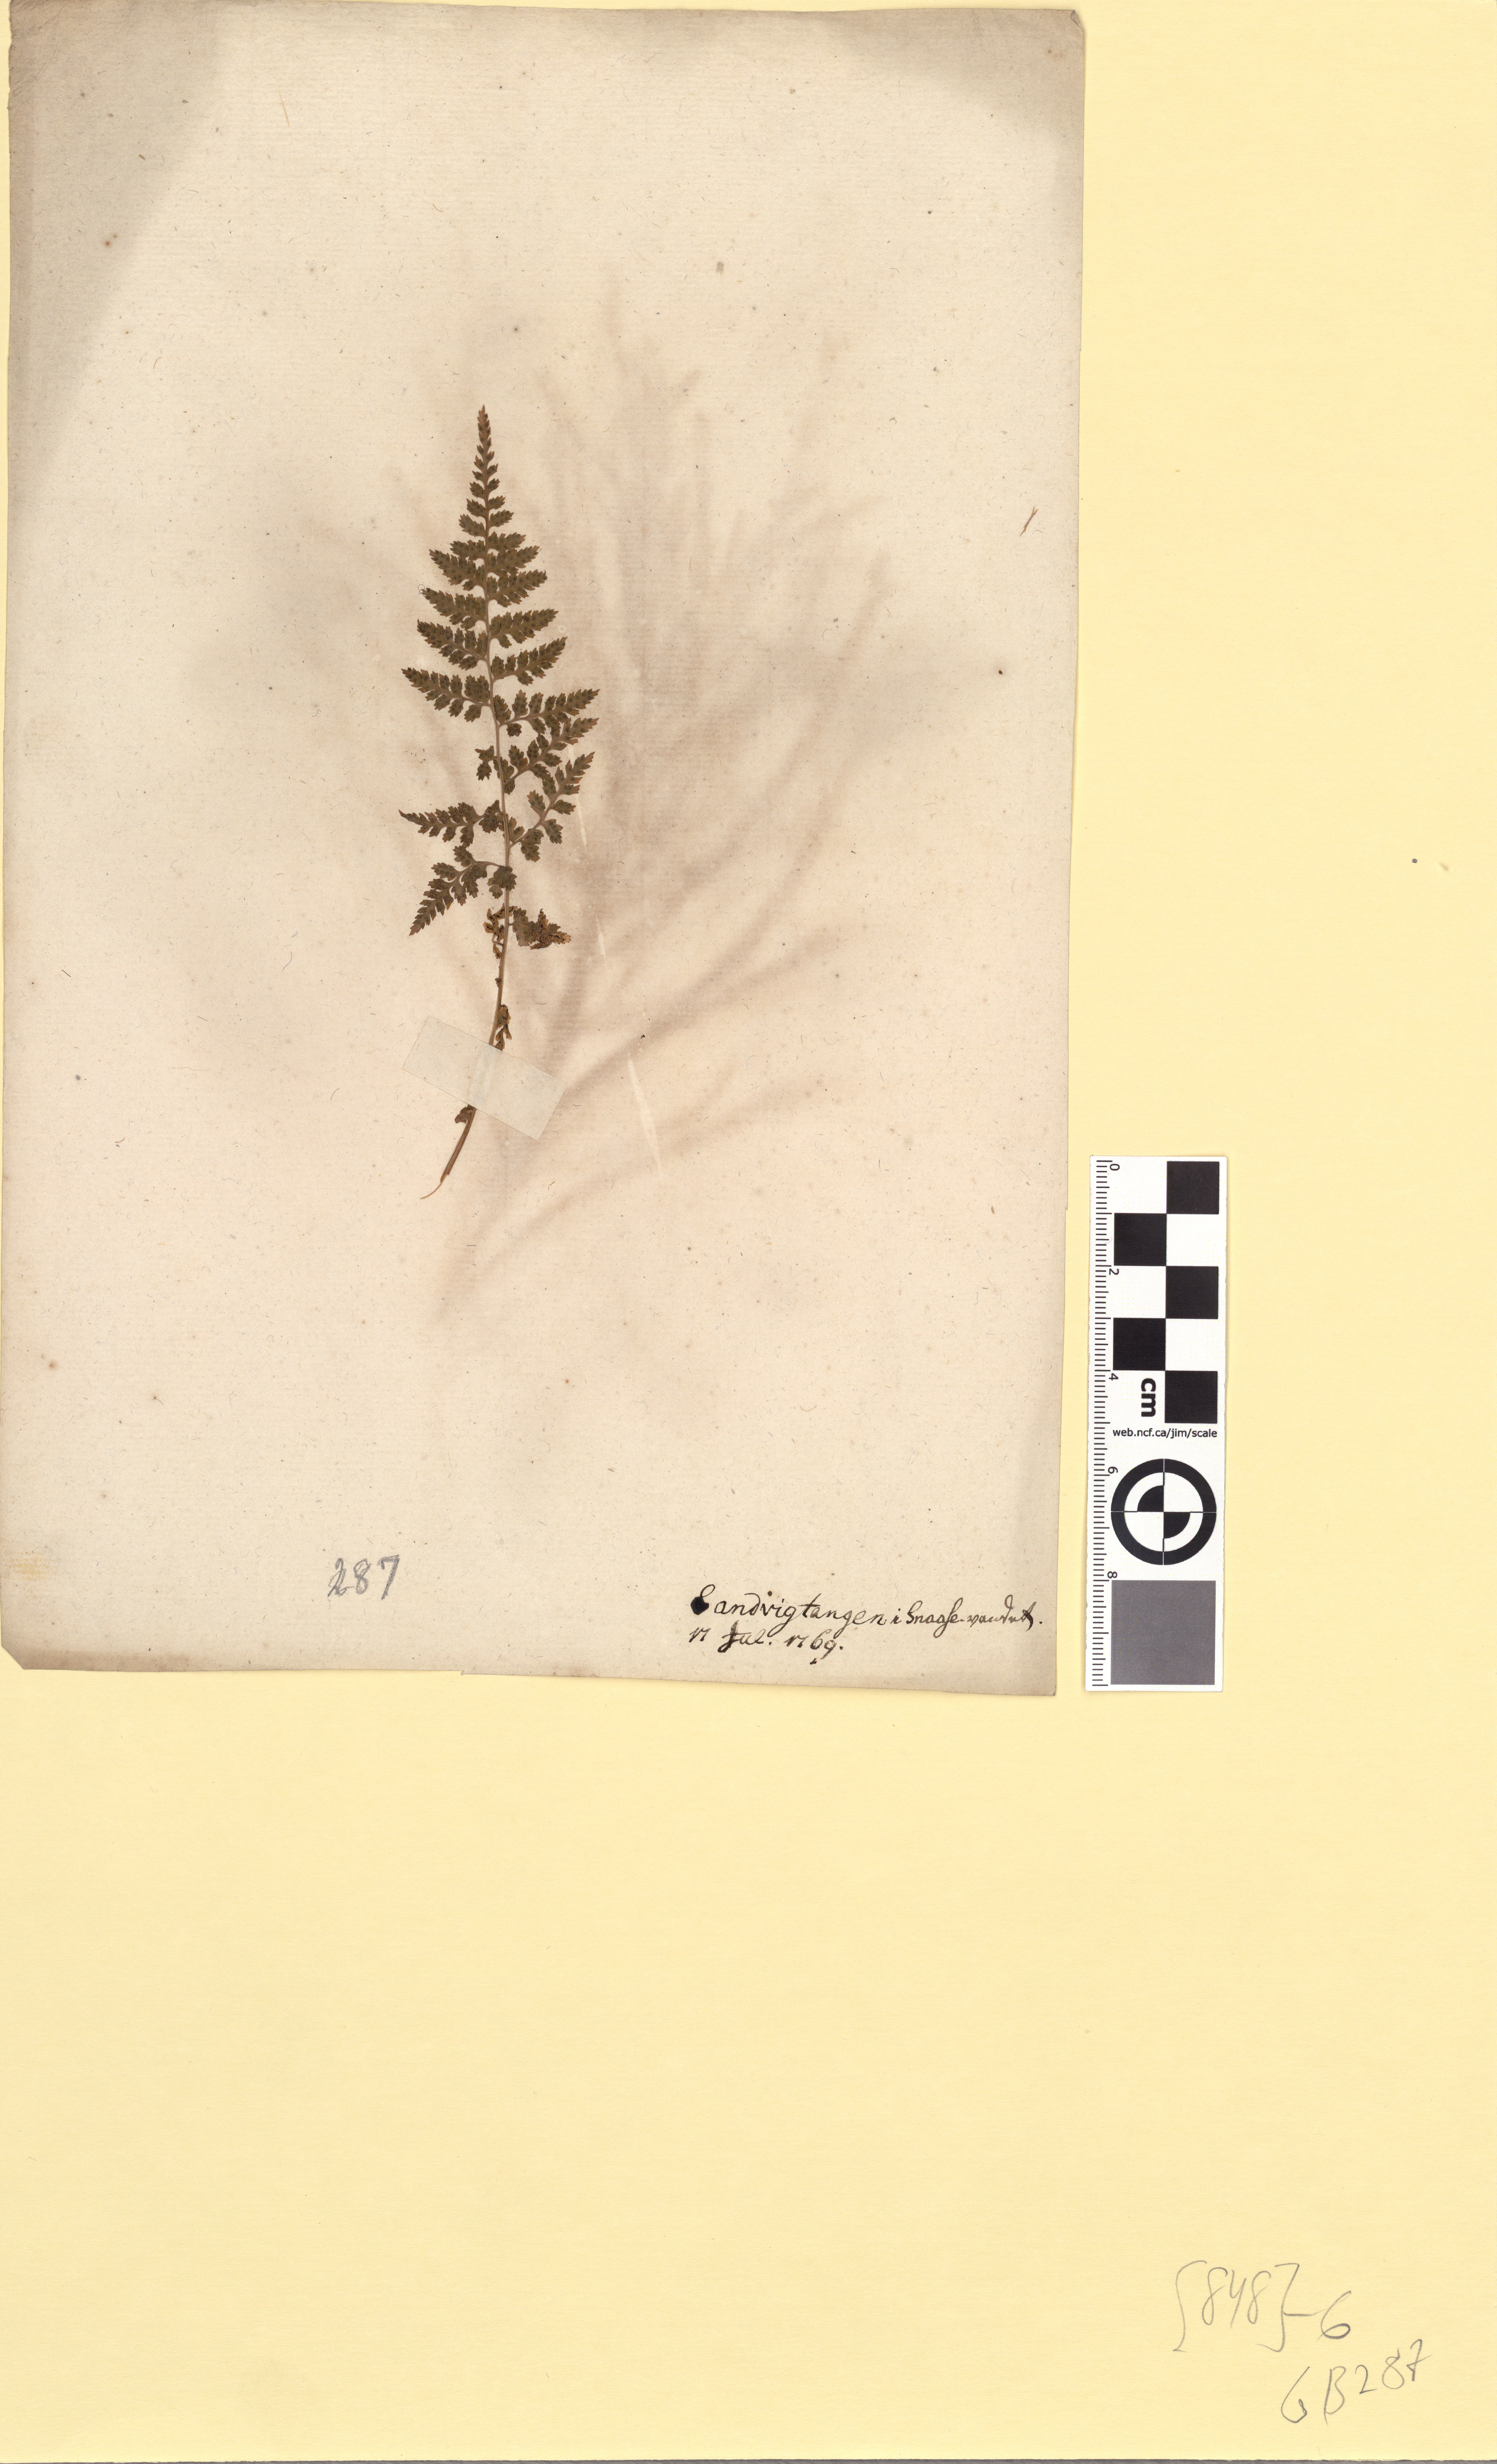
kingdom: Plantae
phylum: Tracheophyta
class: Polypodiopsida
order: Polypodiales
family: Cystopteridaceae
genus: Cystopteris
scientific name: Cystopteris fragilis
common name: Brittle bladder fern
